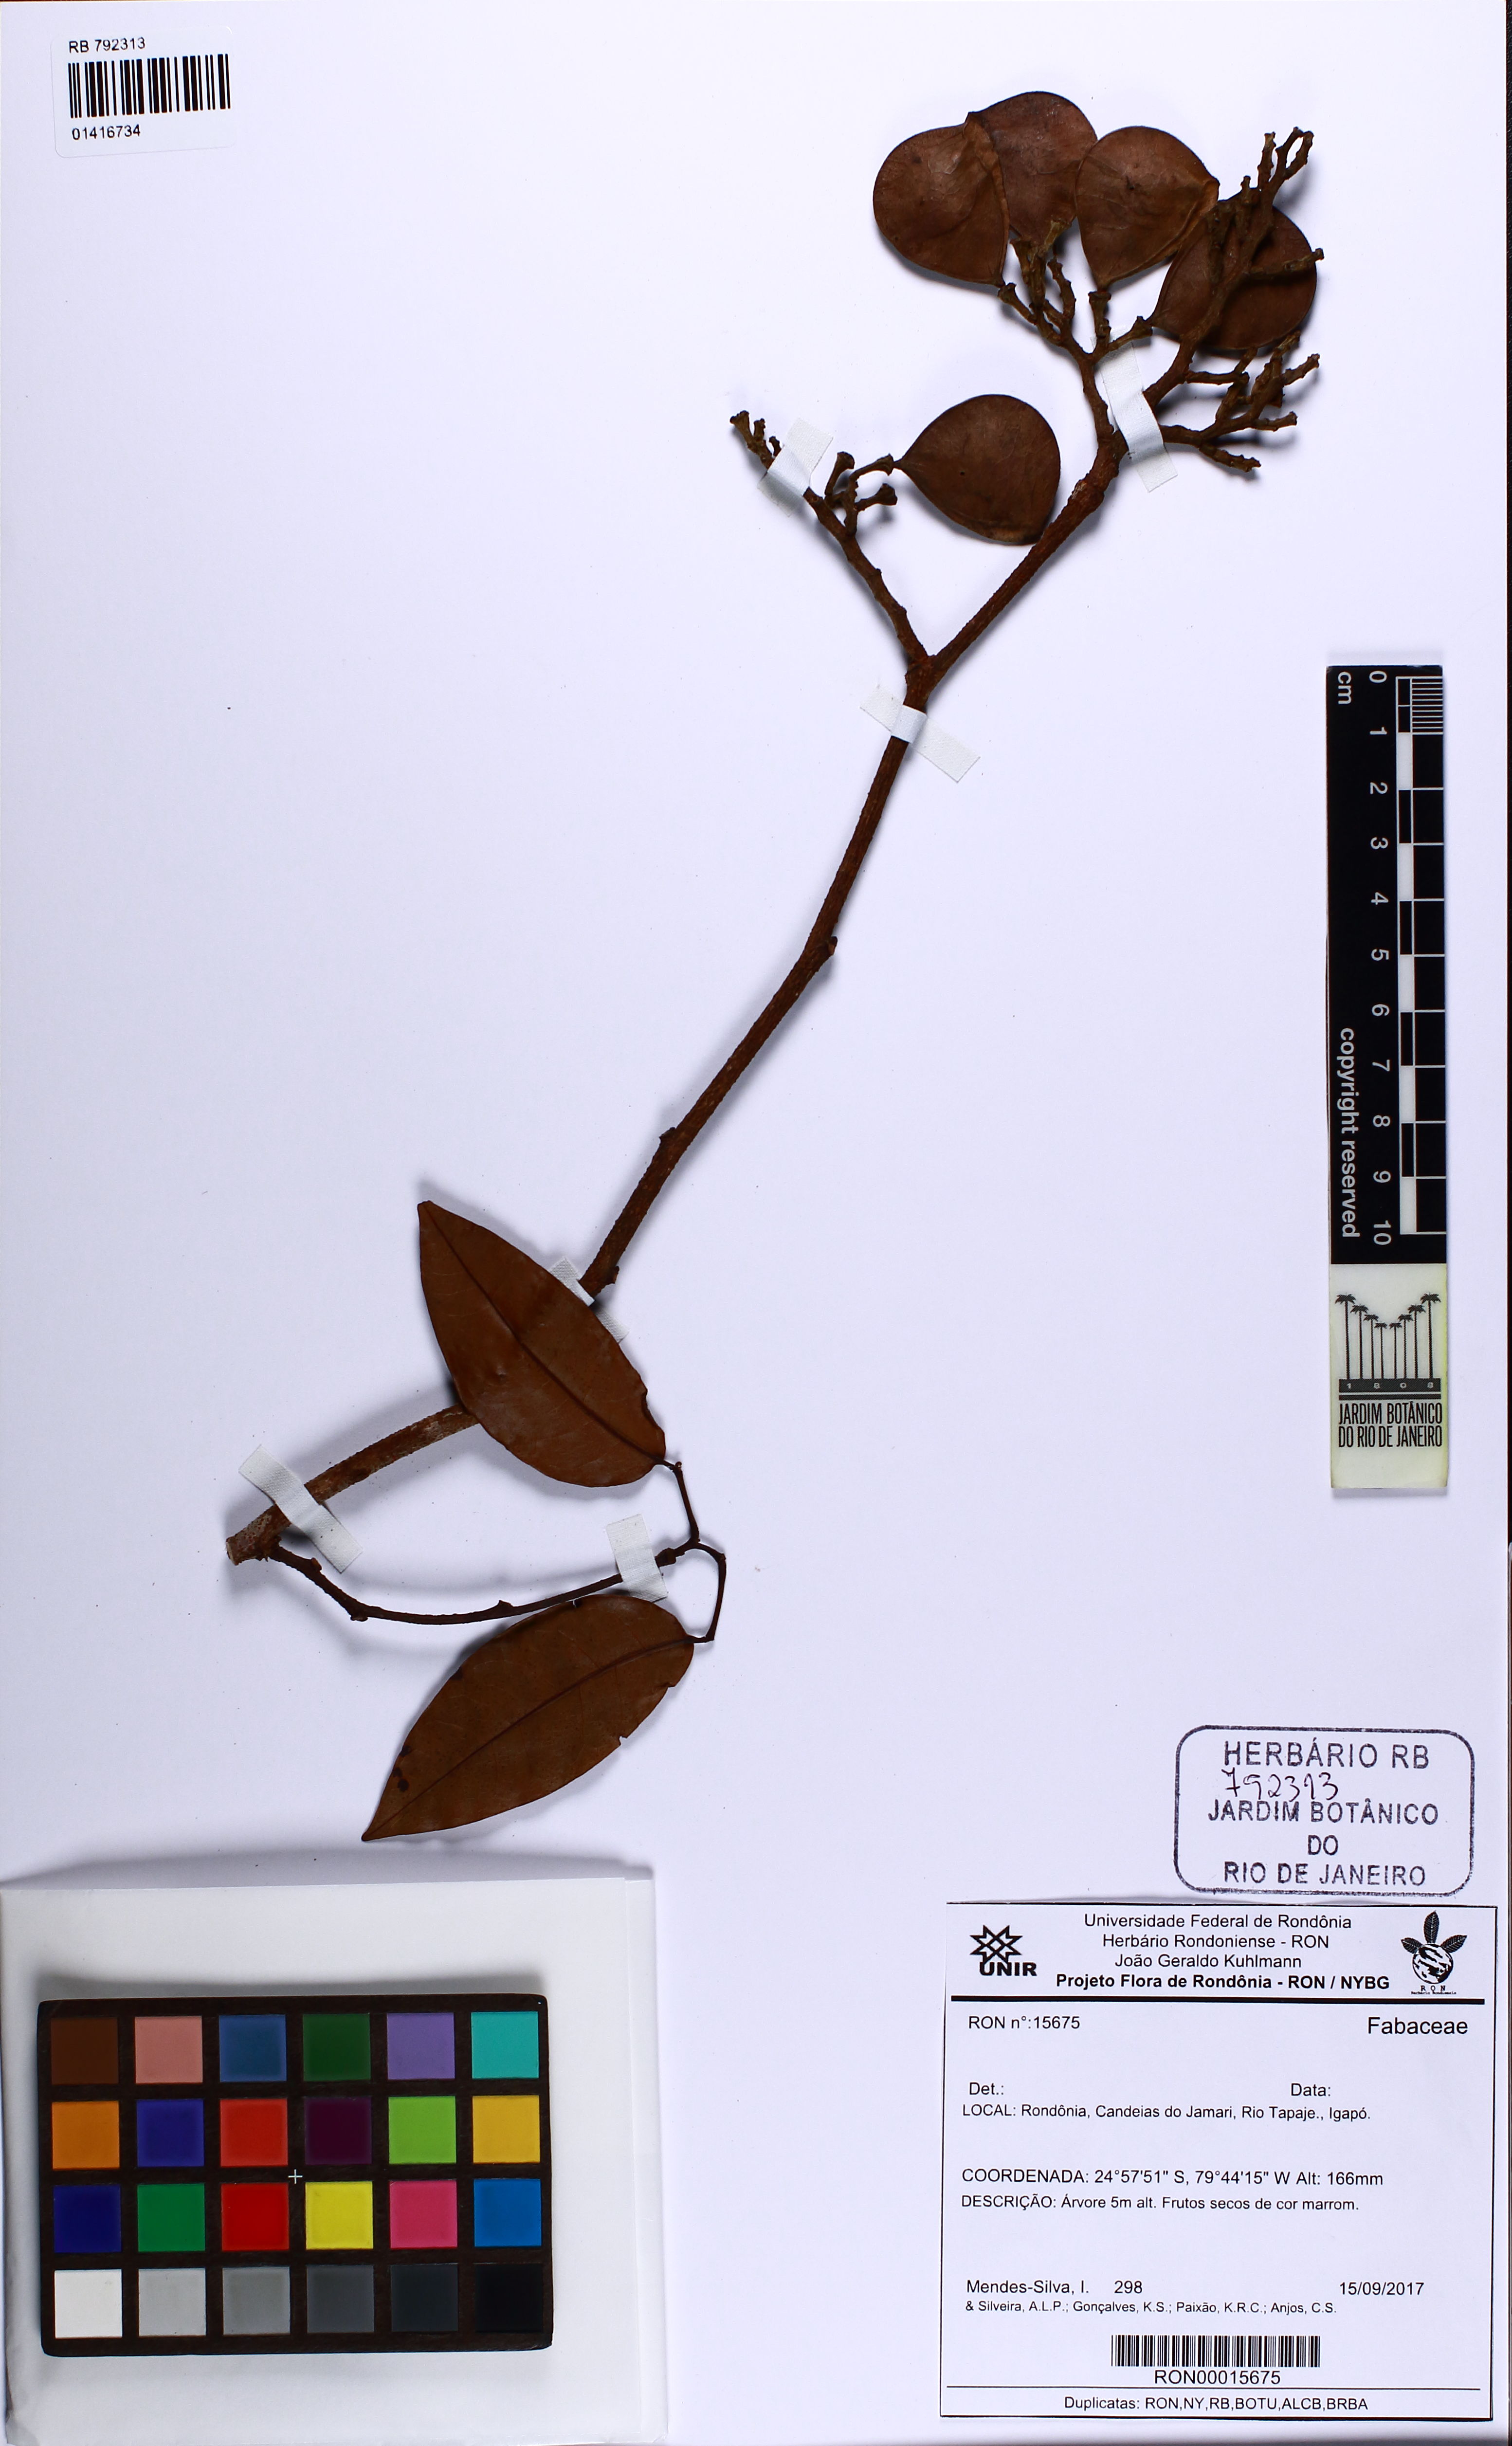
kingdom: Plantae
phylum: Tracheophyta
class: Magnoliopsida
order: Fabales
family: Fabaceae
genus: Peltogyne
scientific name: Peltogyne
